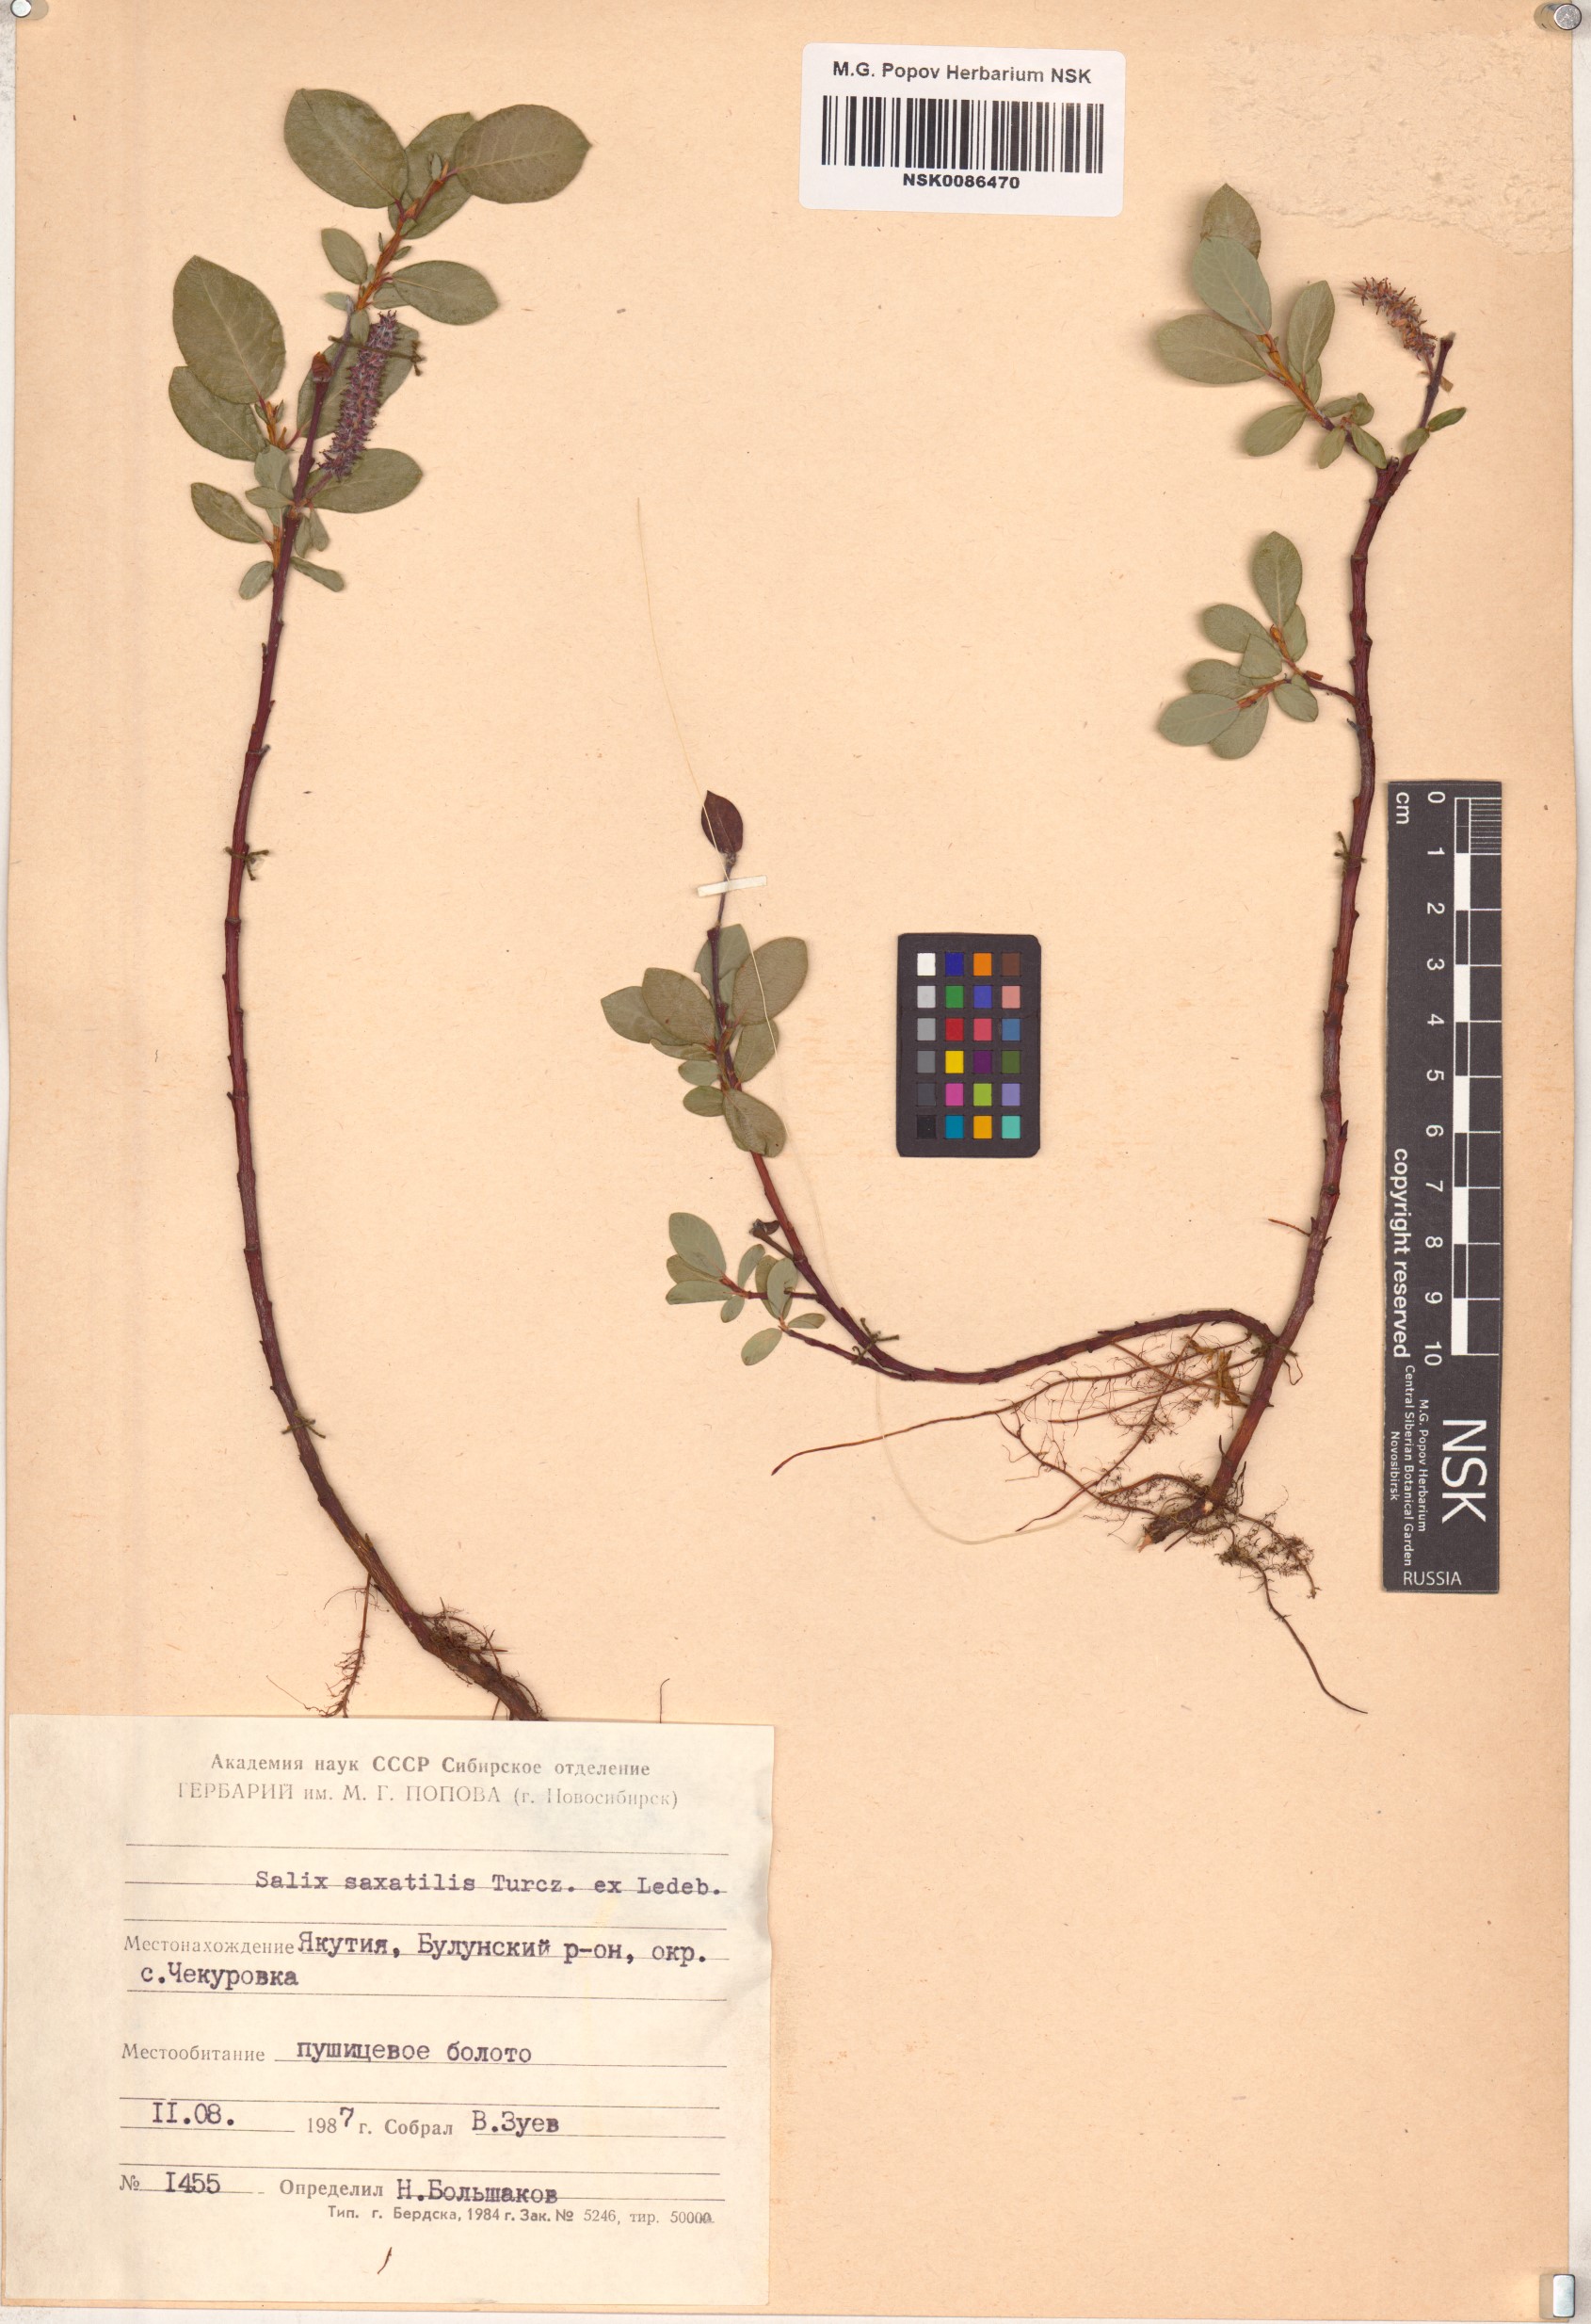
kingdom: Plantae
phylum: Tracheophyta
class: Magnoliopsida
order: Malpighiales
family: Salicaceae
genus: Salix
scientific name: Salix saxatilis
